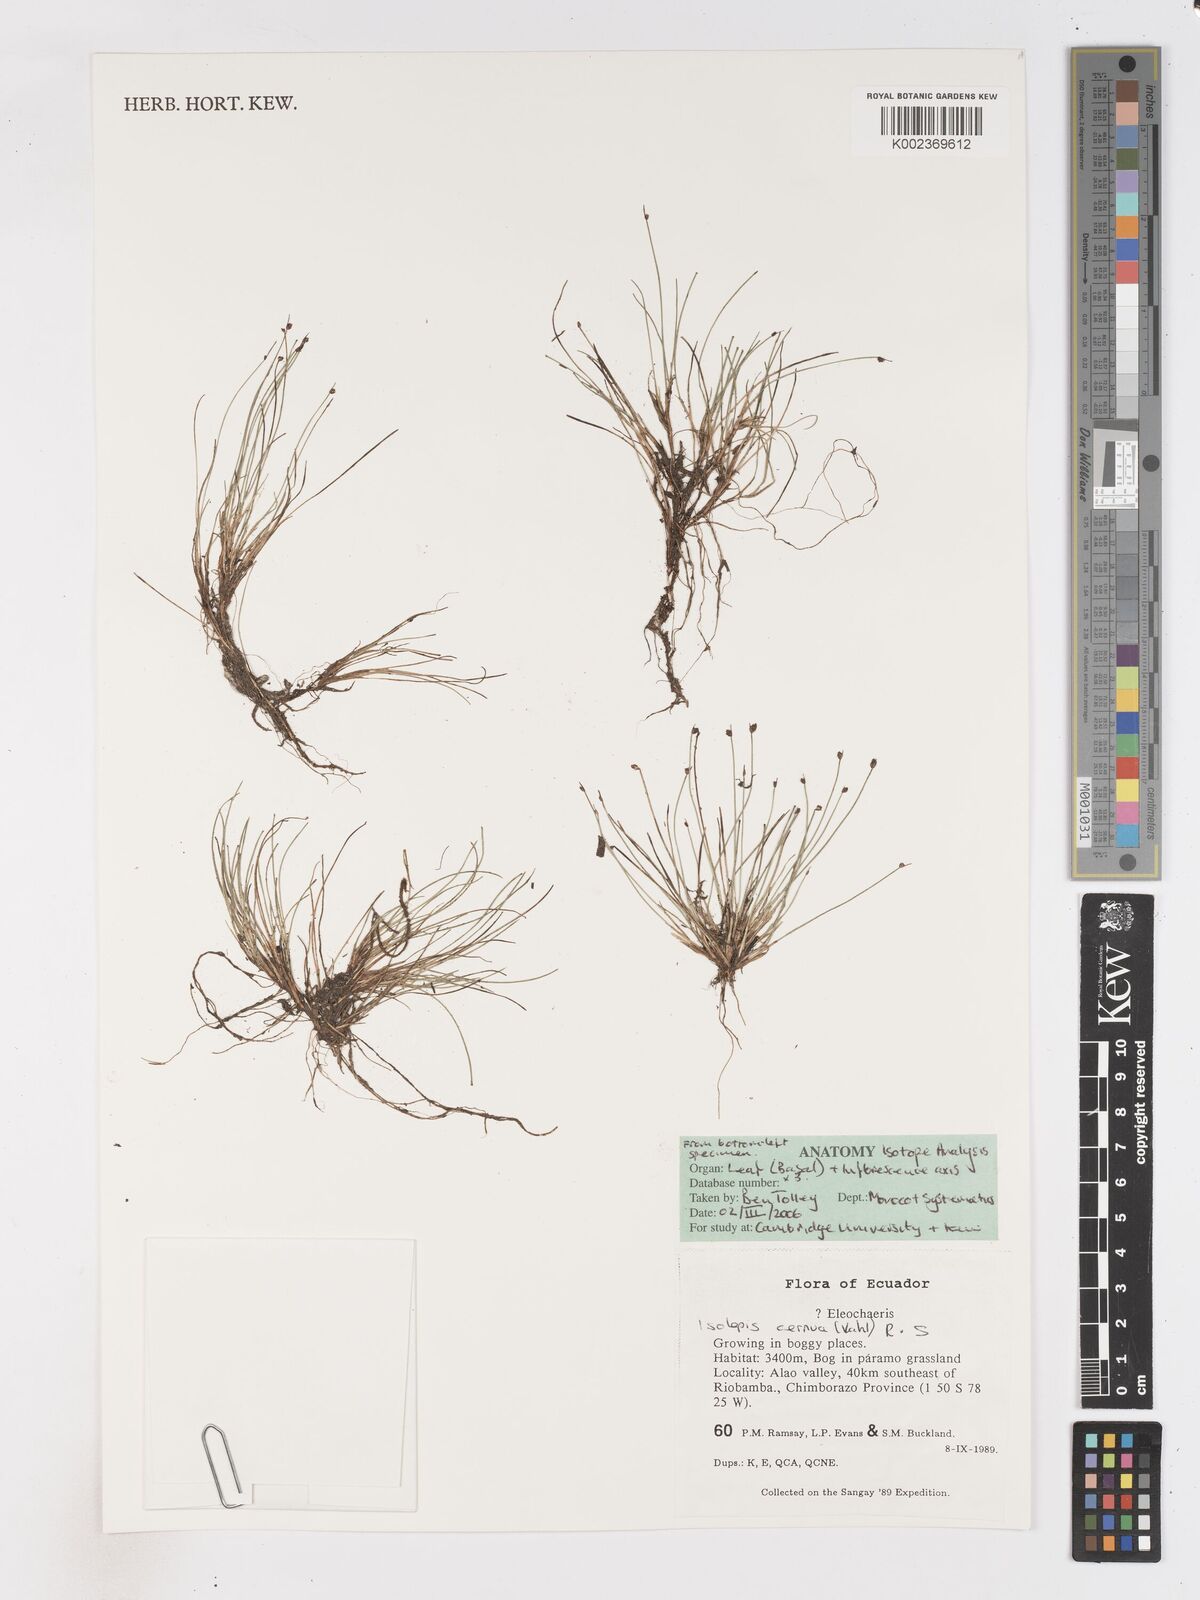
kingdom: Plantae
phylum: Tracheophyta
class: Liliopsida
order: Poales
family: Cyperaceae
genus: Isolepis
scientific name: Isolepis cernua
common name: Slender club-rush
